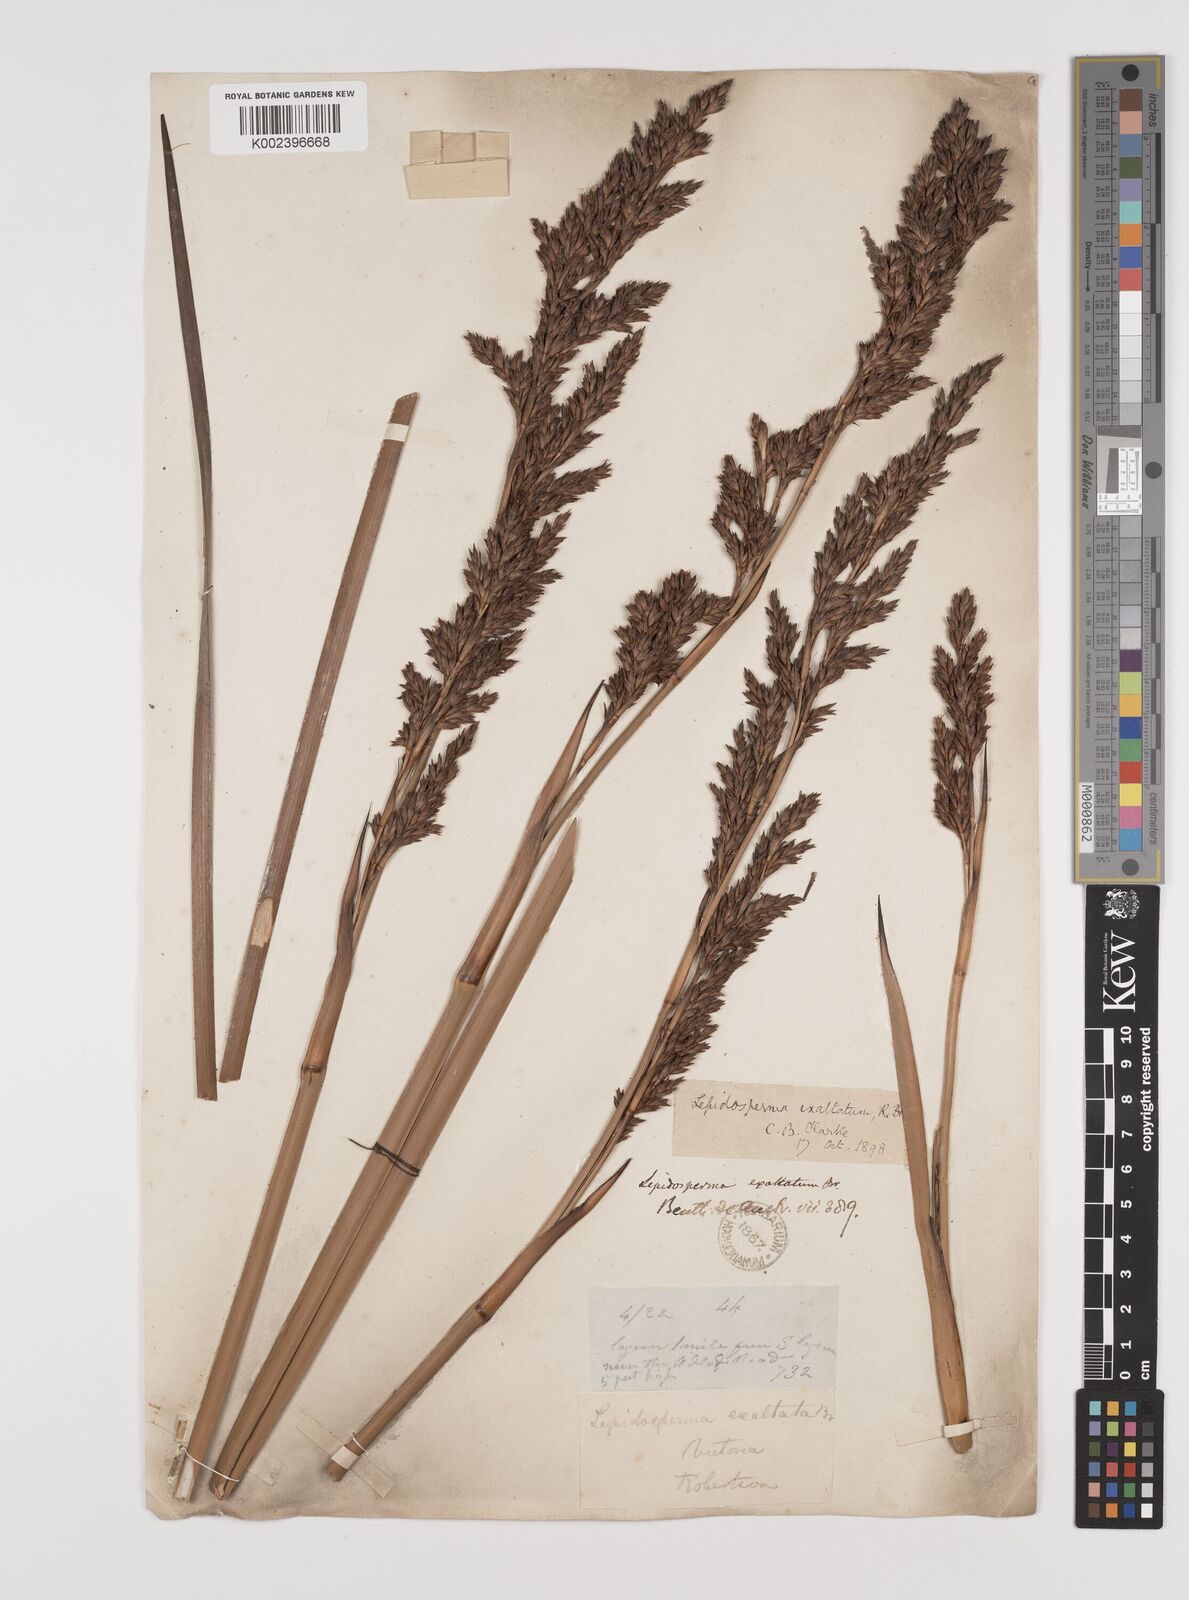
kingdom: Plantae
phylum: Tracheophyta
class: Liliopsida
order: Poales
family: Cyperaceae
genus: Lepidosperma
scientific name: Lepidosperma longitudinale
